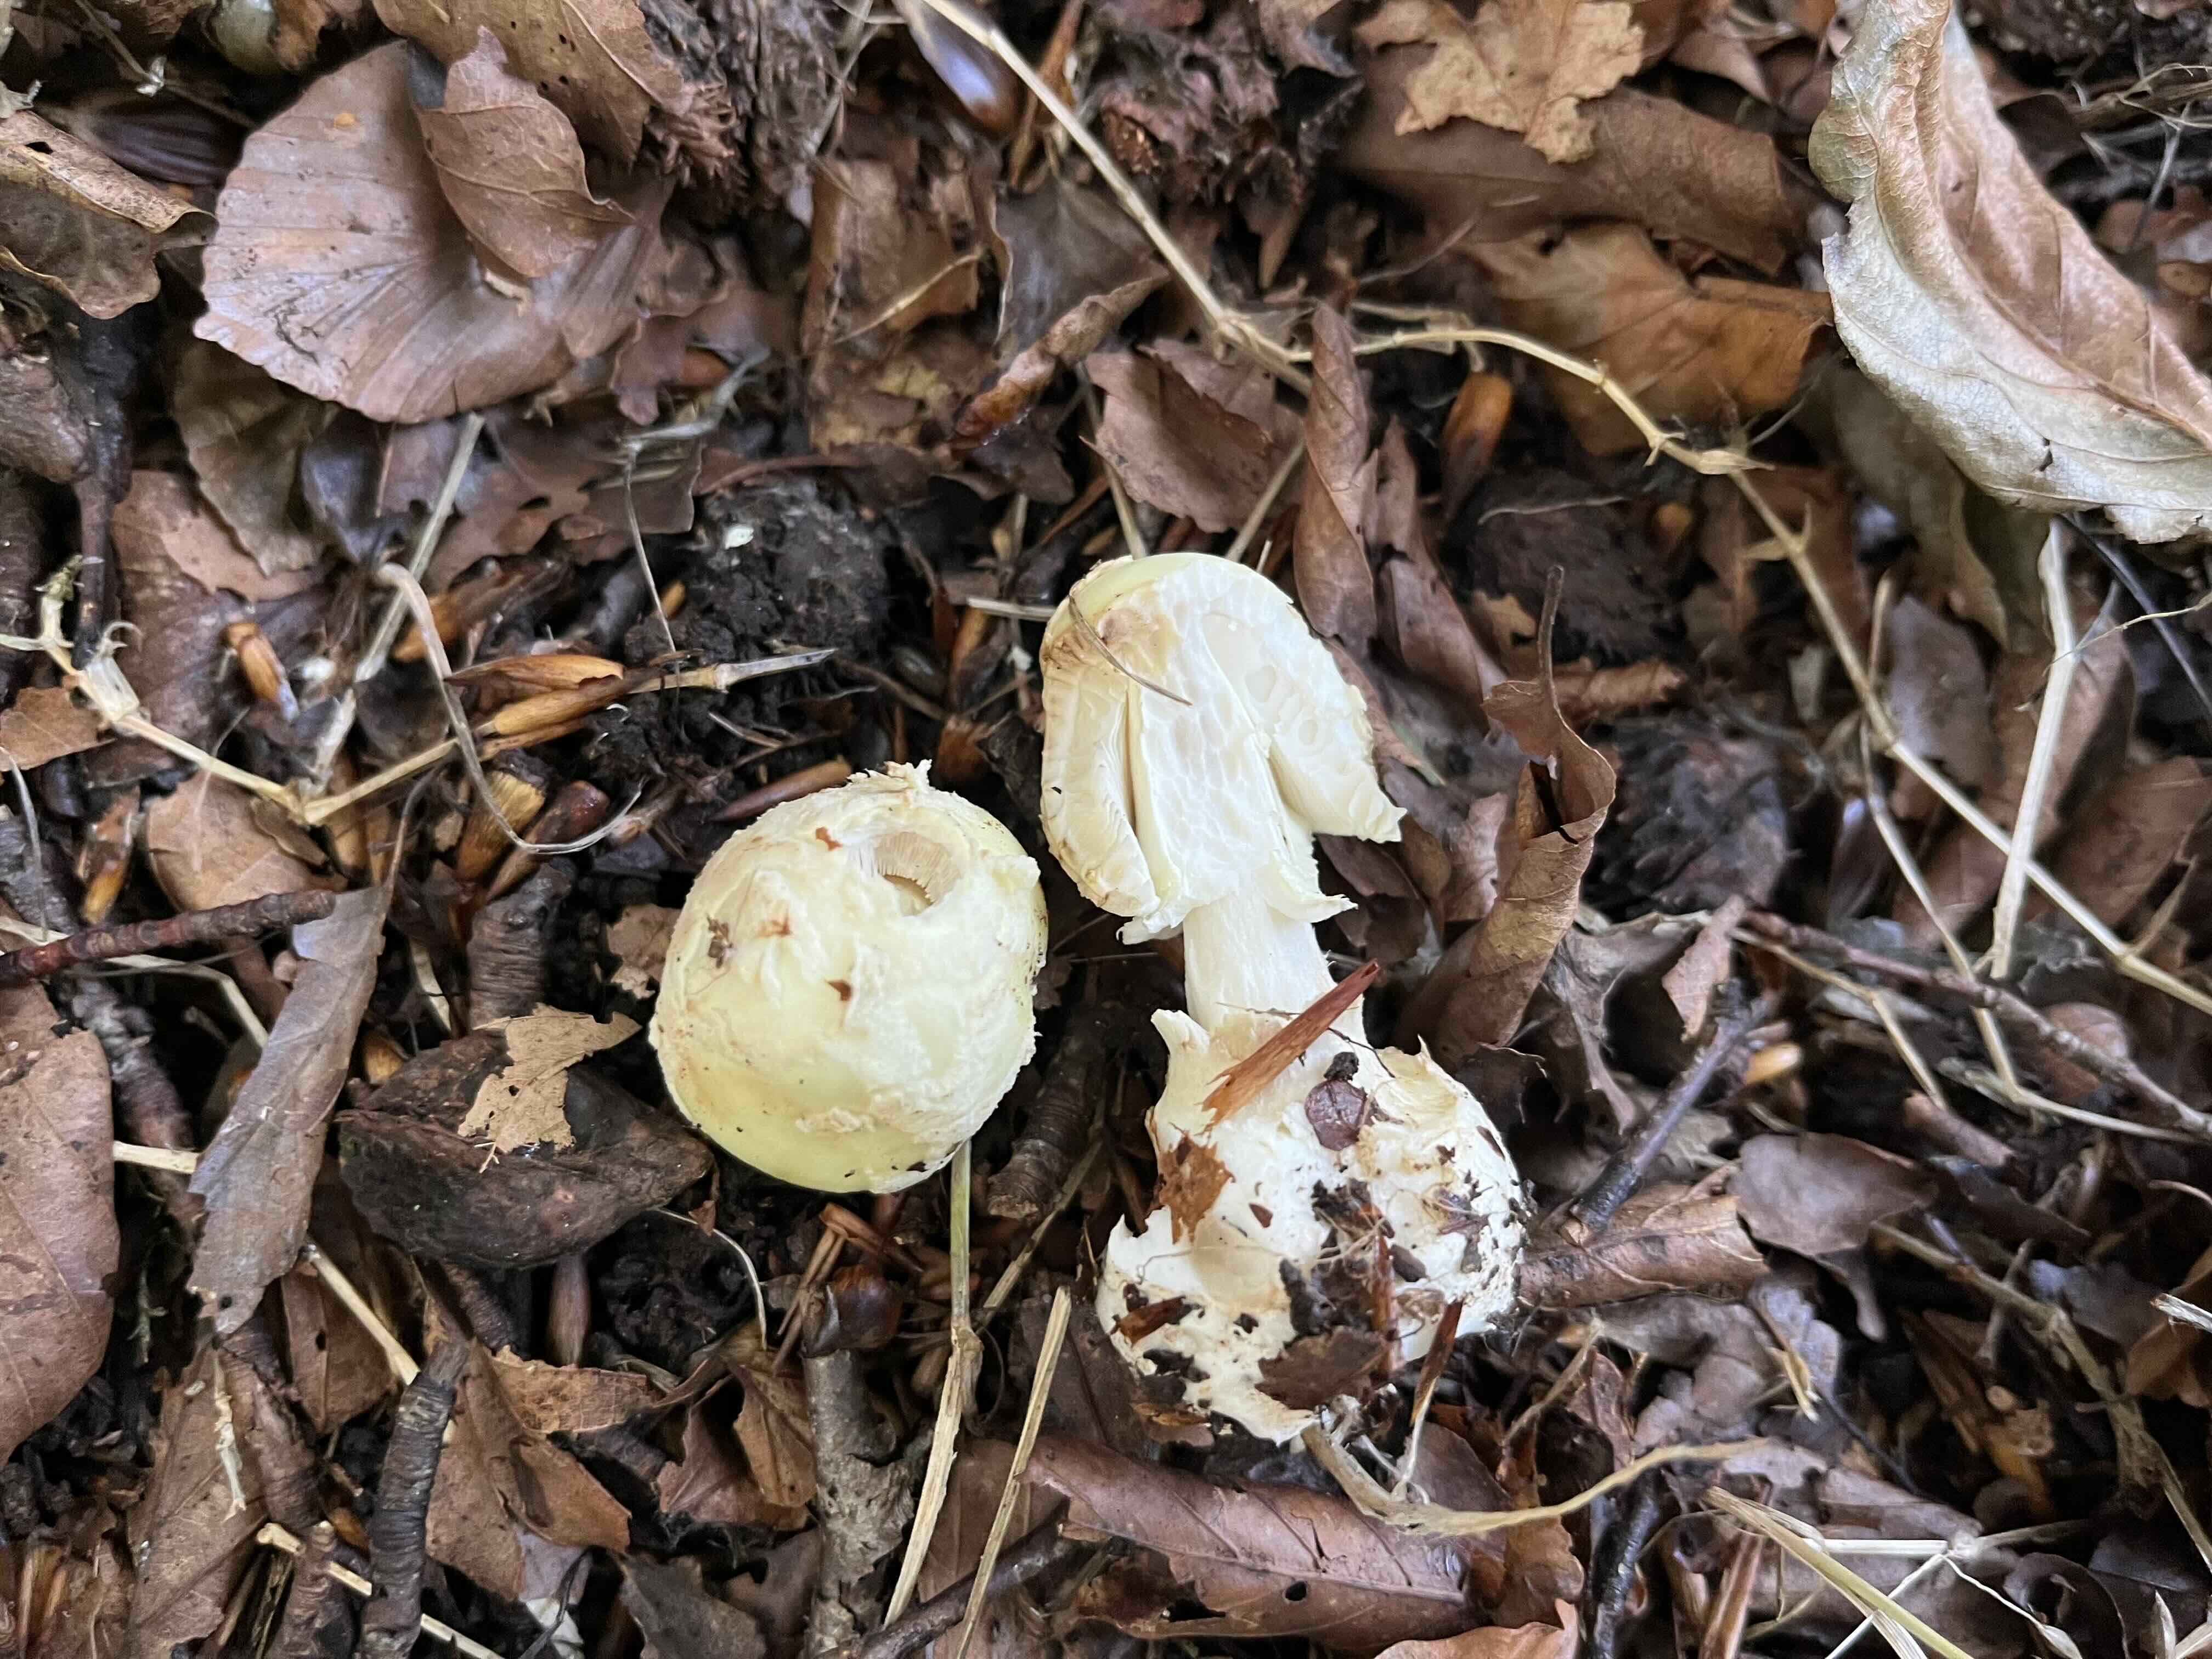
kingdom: Fungi
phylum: Basidiomycota
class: Agaricomycetes
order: Agaricales
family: Amanitaceae
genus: Amanita
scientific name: Amanita citrina
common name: kugleknoldet fluesvamp
